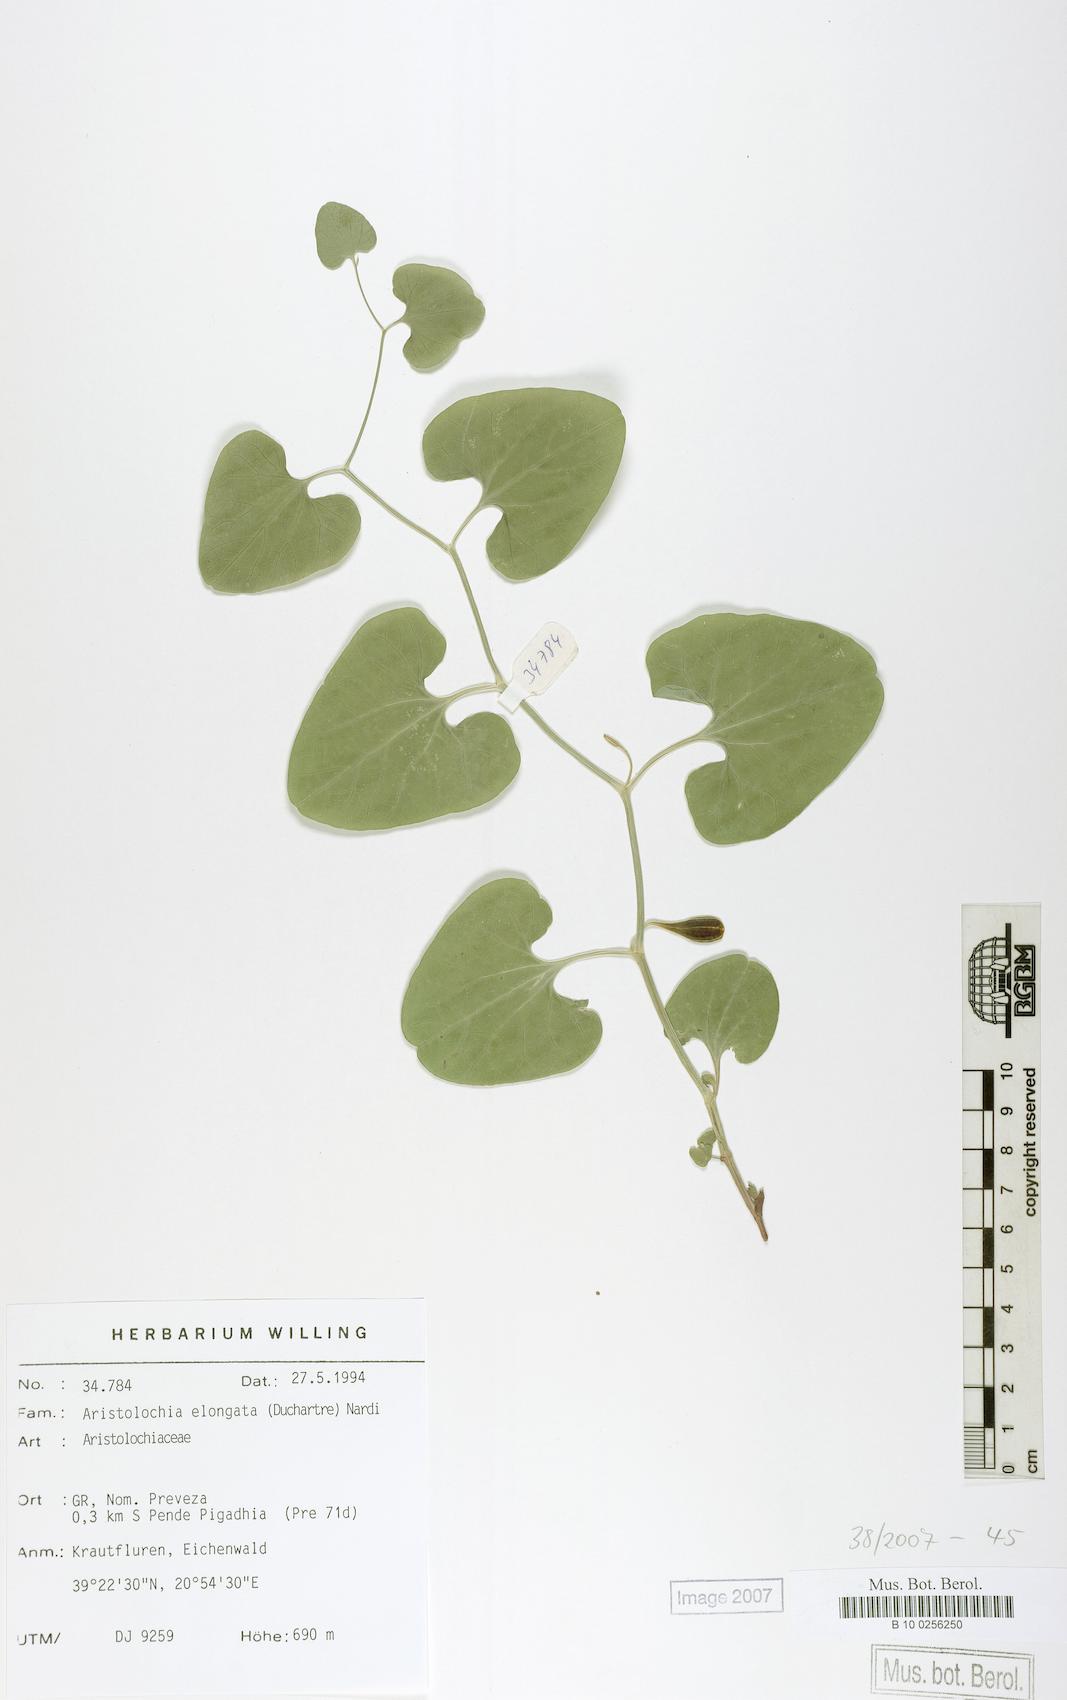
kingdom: Plantae
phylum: Tracheophyta
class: Magnoliopsida
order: Piperales
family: Aristolochiaceae
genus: Aristolochia
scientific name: Aristolochia nardiana
